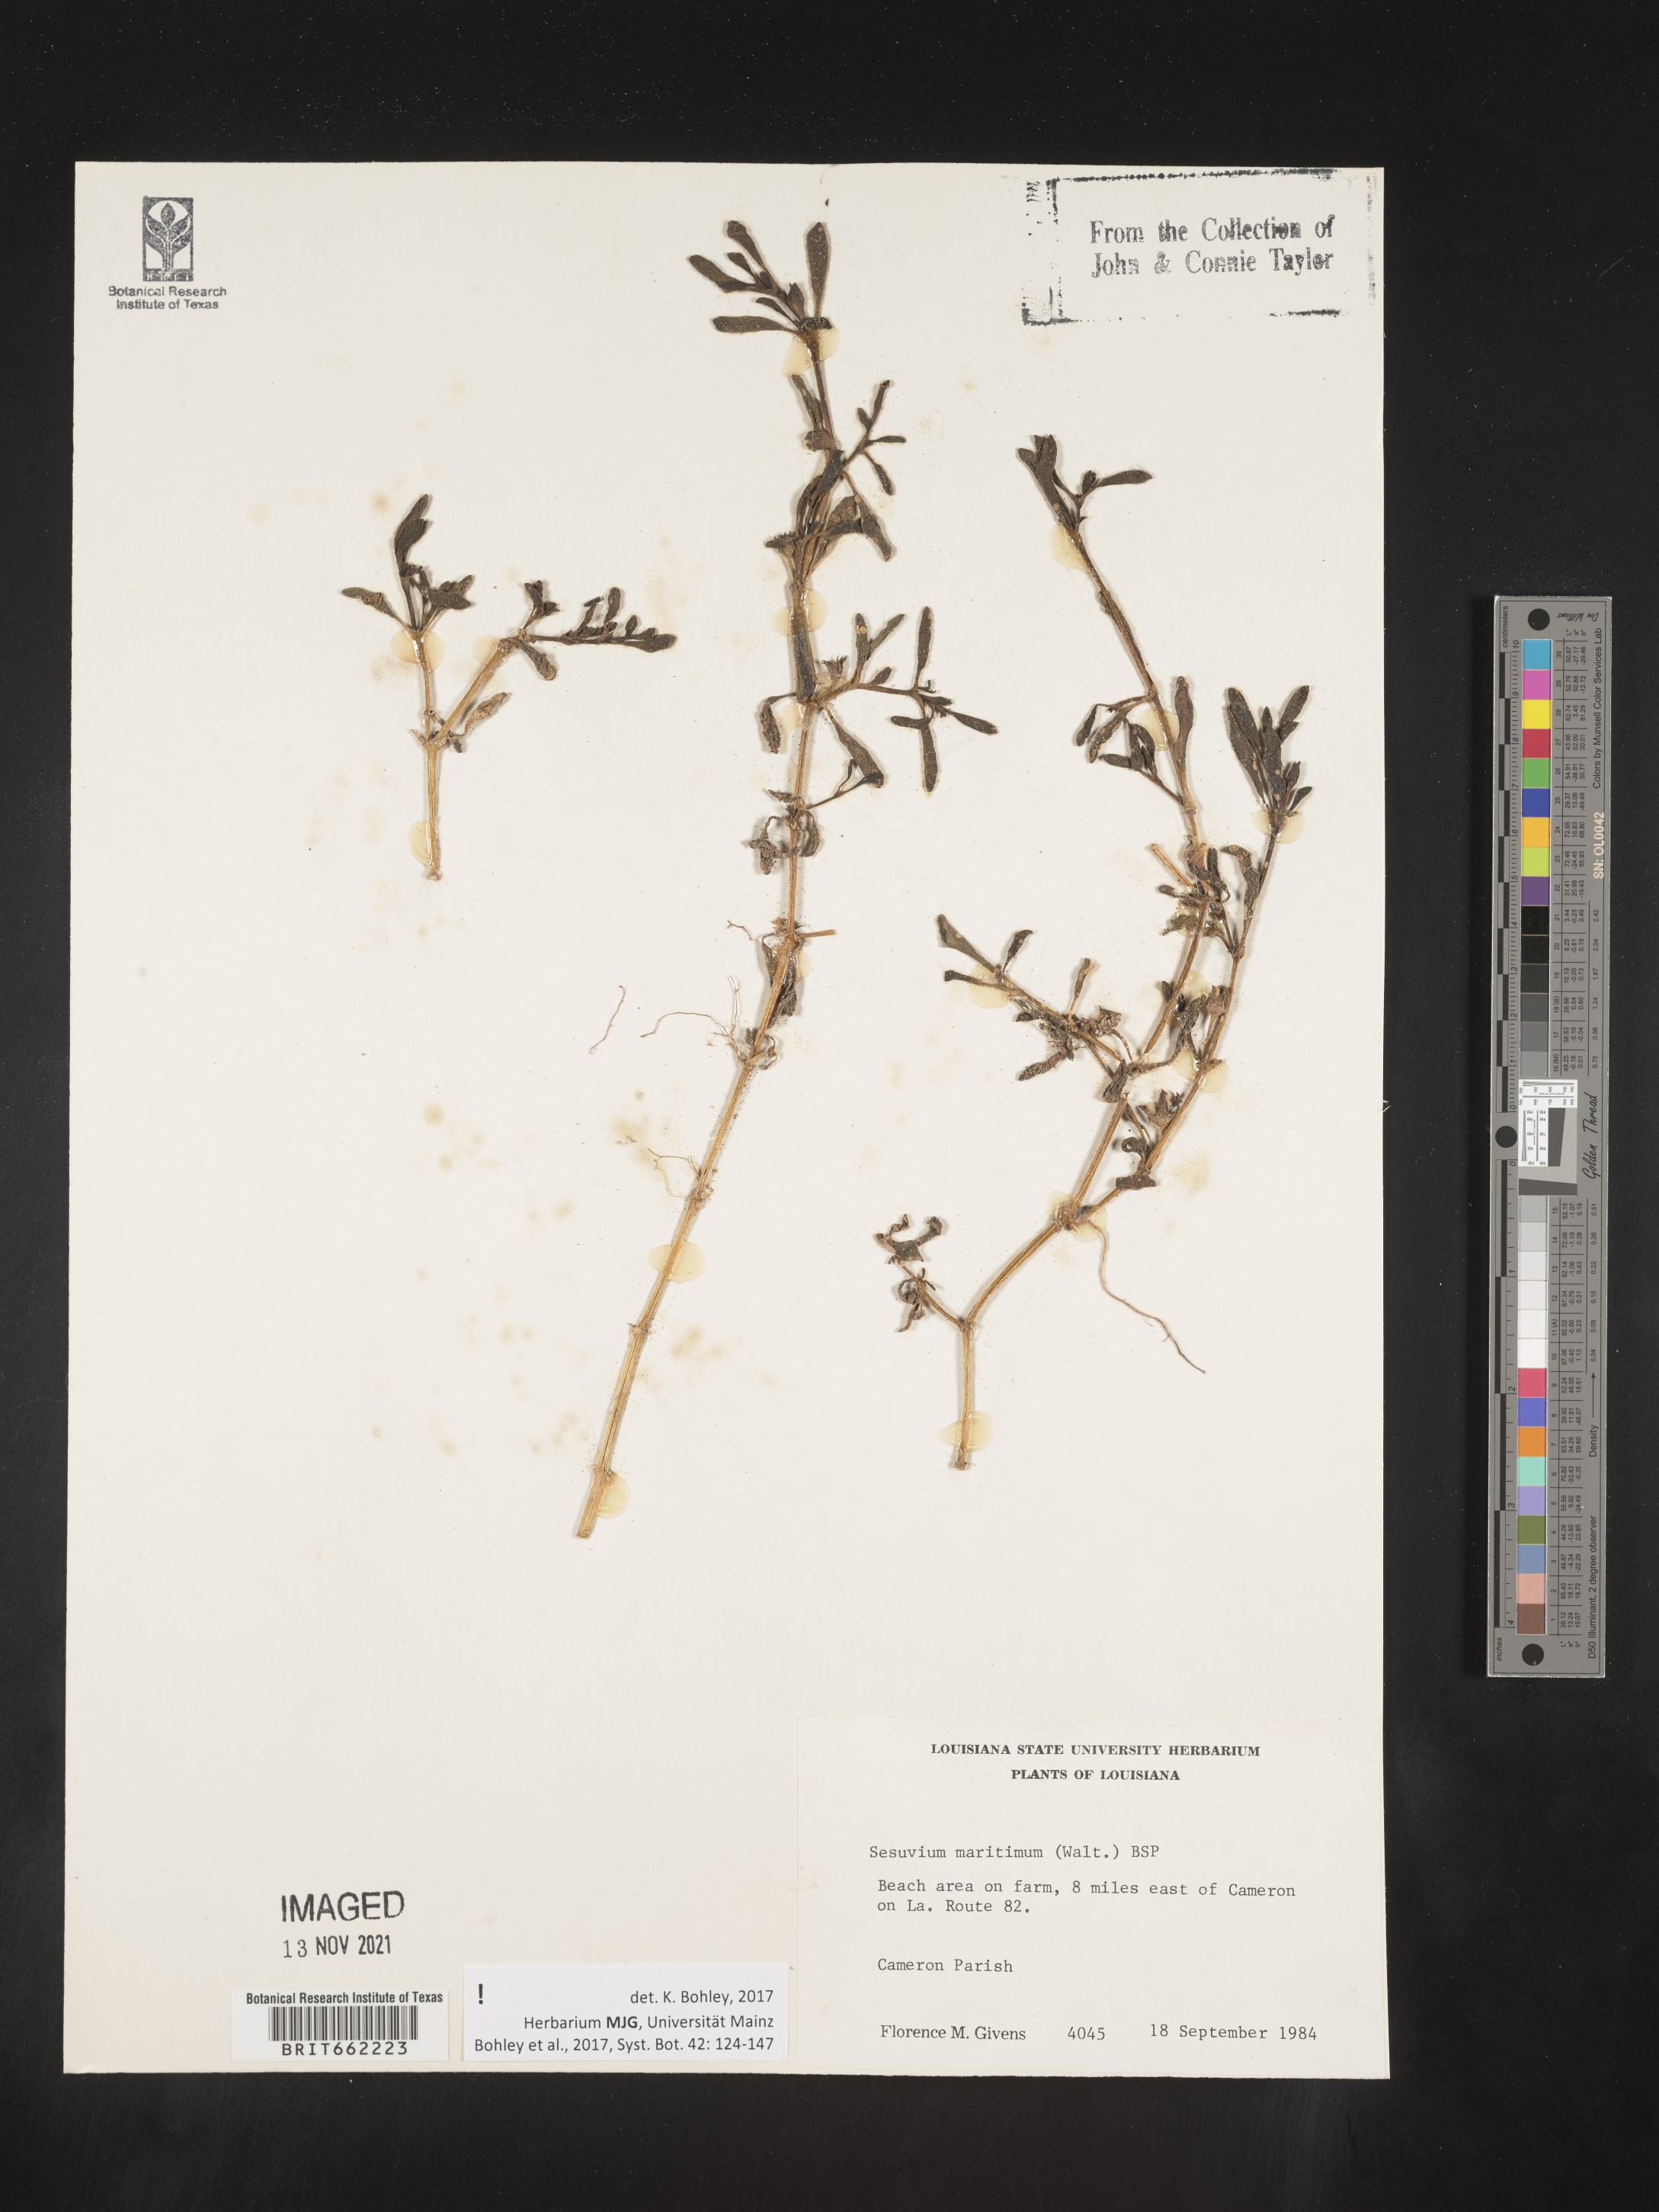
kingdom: Plantae
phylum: Tracheophyta
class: Magnoliopsida
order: Caryophyllales
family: Aizoaceae
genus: Sesuvium
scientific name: Sesuvium
